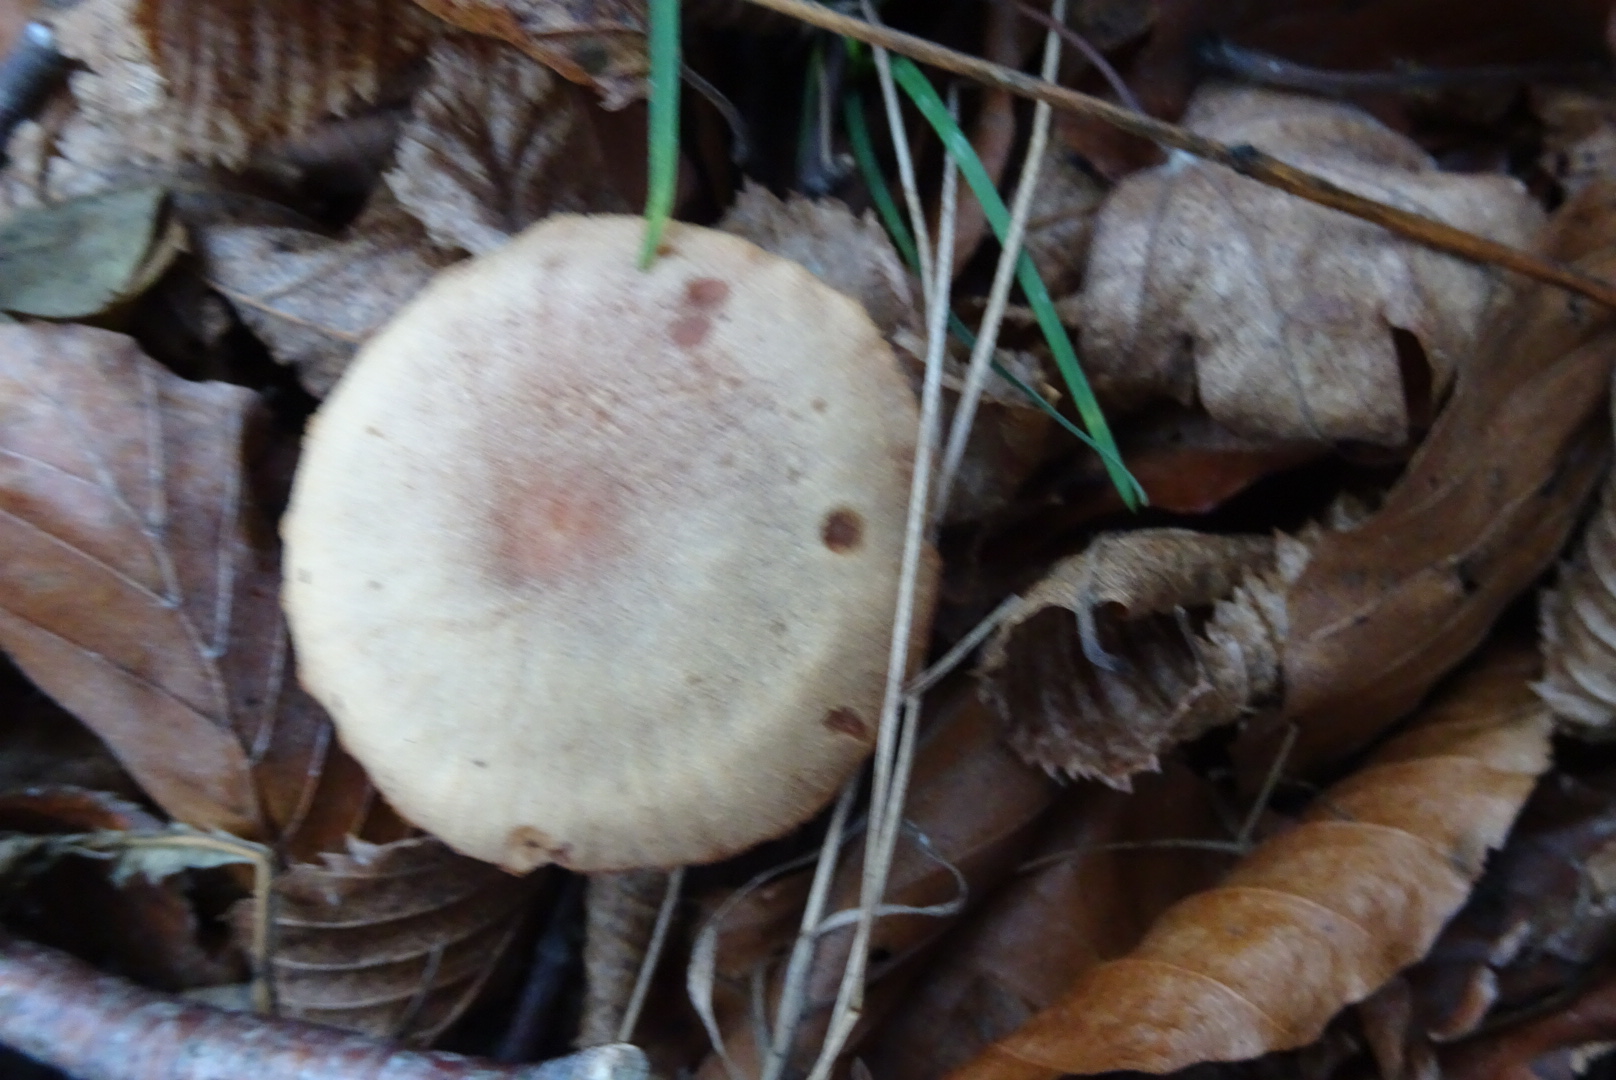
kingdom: Fungi
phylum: Basidiomycota
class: Agaricomycetes
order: Agaricales
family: Hydnangiaceae
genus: Laccaria
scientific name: Laccaria proxima
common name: stor ametysthat
